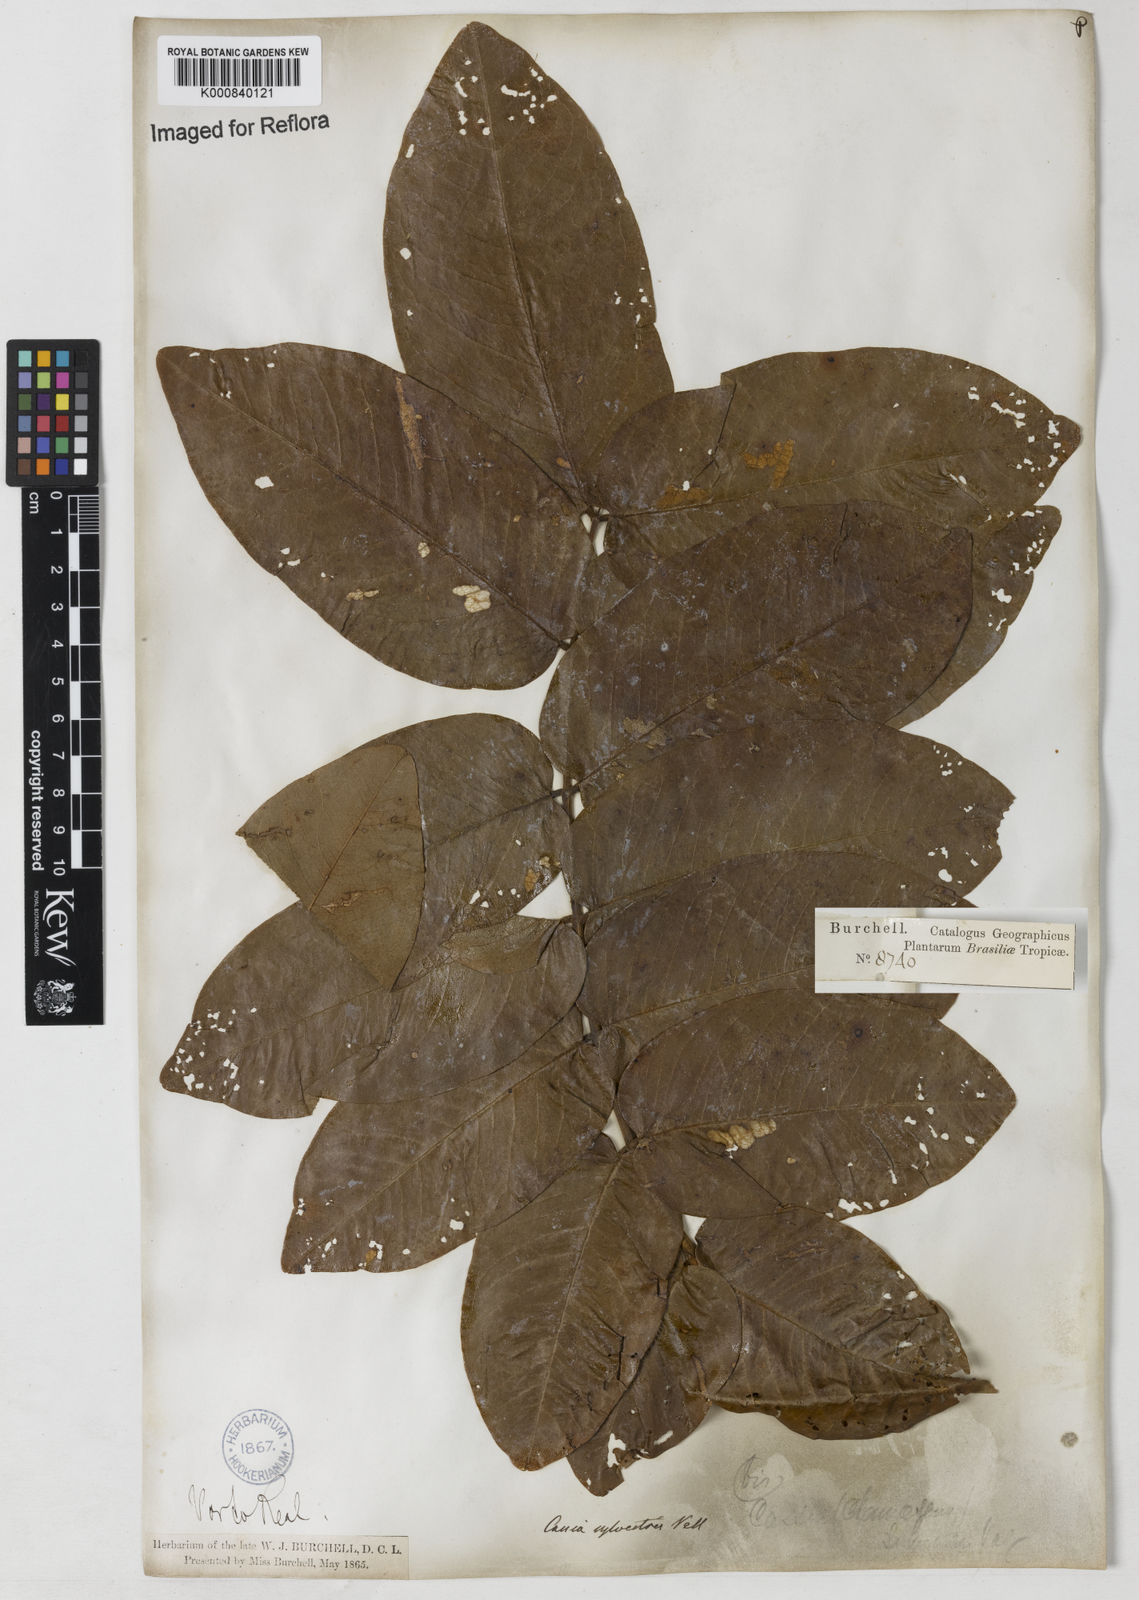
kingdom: Plantae
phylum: Tracheophyta
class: Magnoliopsida
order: Fabales
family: Fabaceae
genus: Senna
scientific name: Senna silvestris
